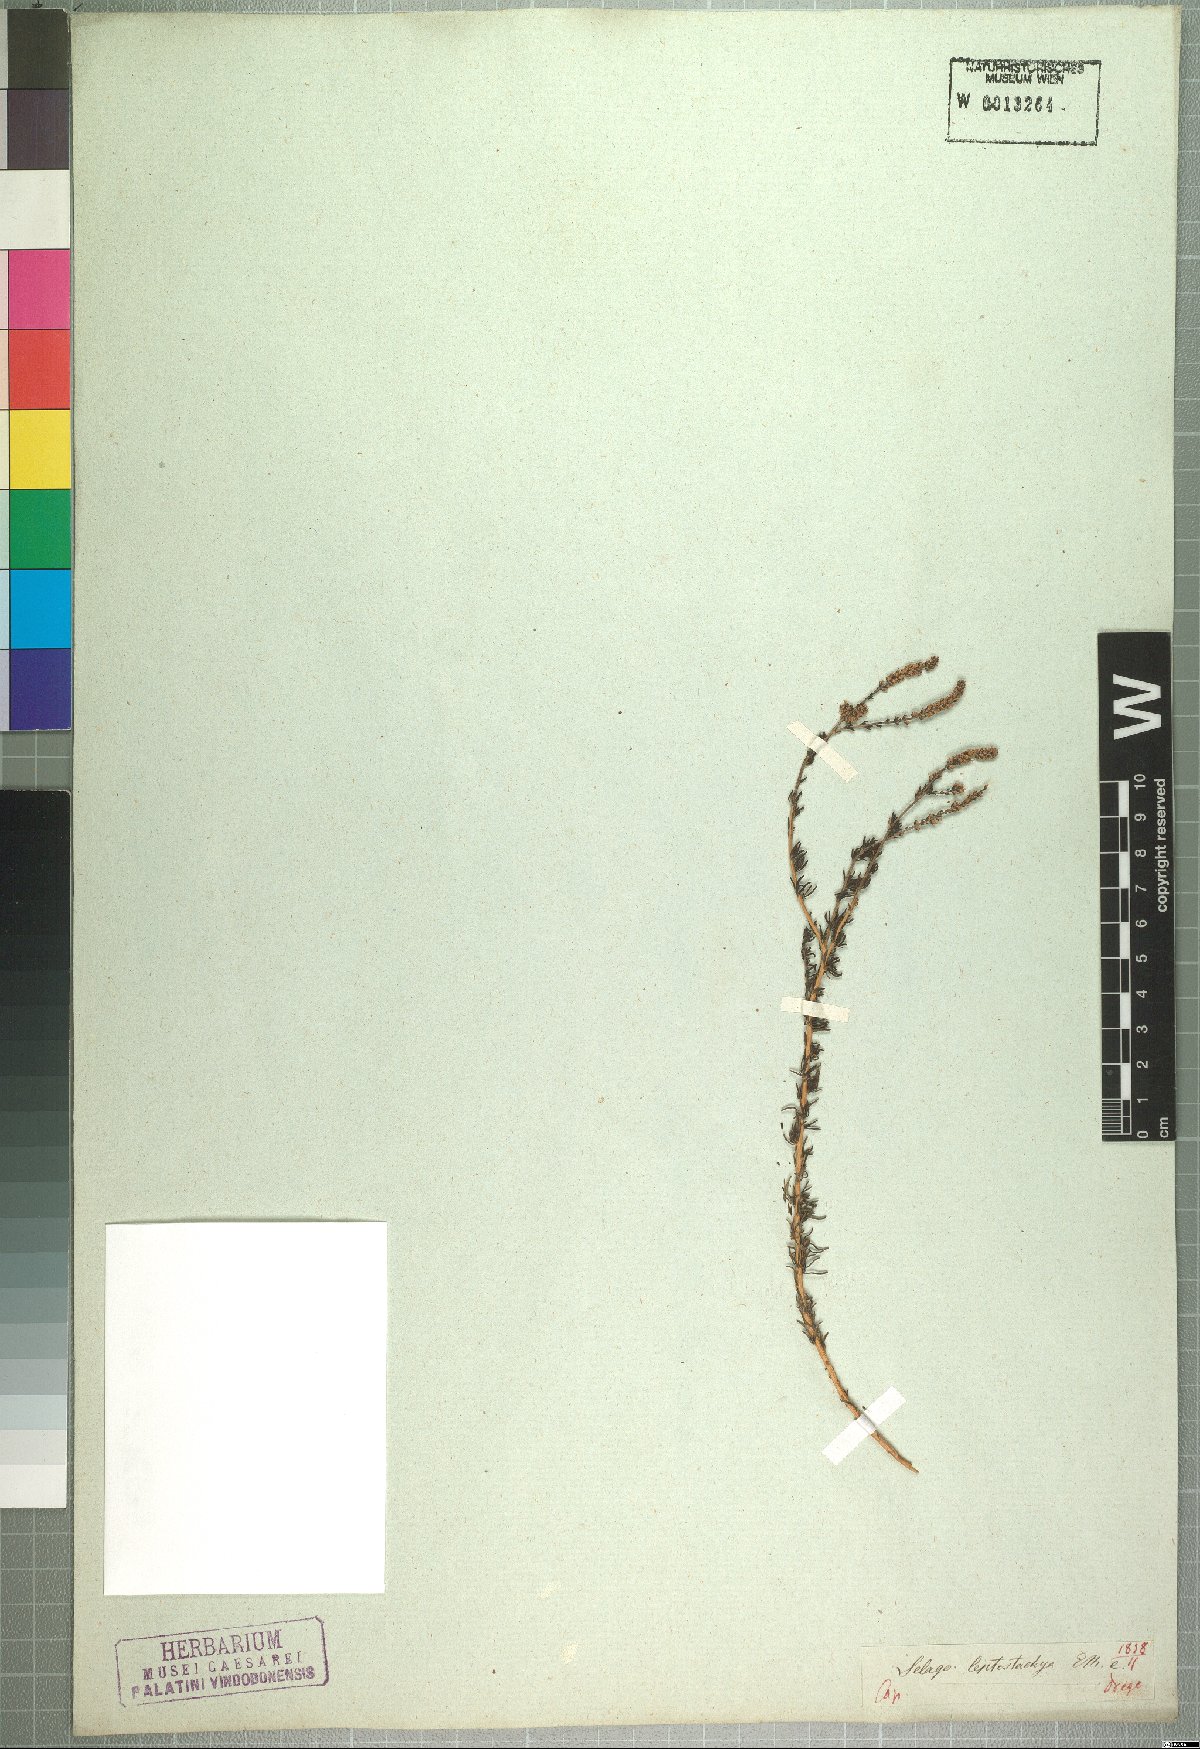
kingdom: Plantae
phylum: Tracheophyta
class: Magnoliopsida
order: Lamiales
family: Scrophulariaceae
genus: Selago
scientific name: Selago geniculata
